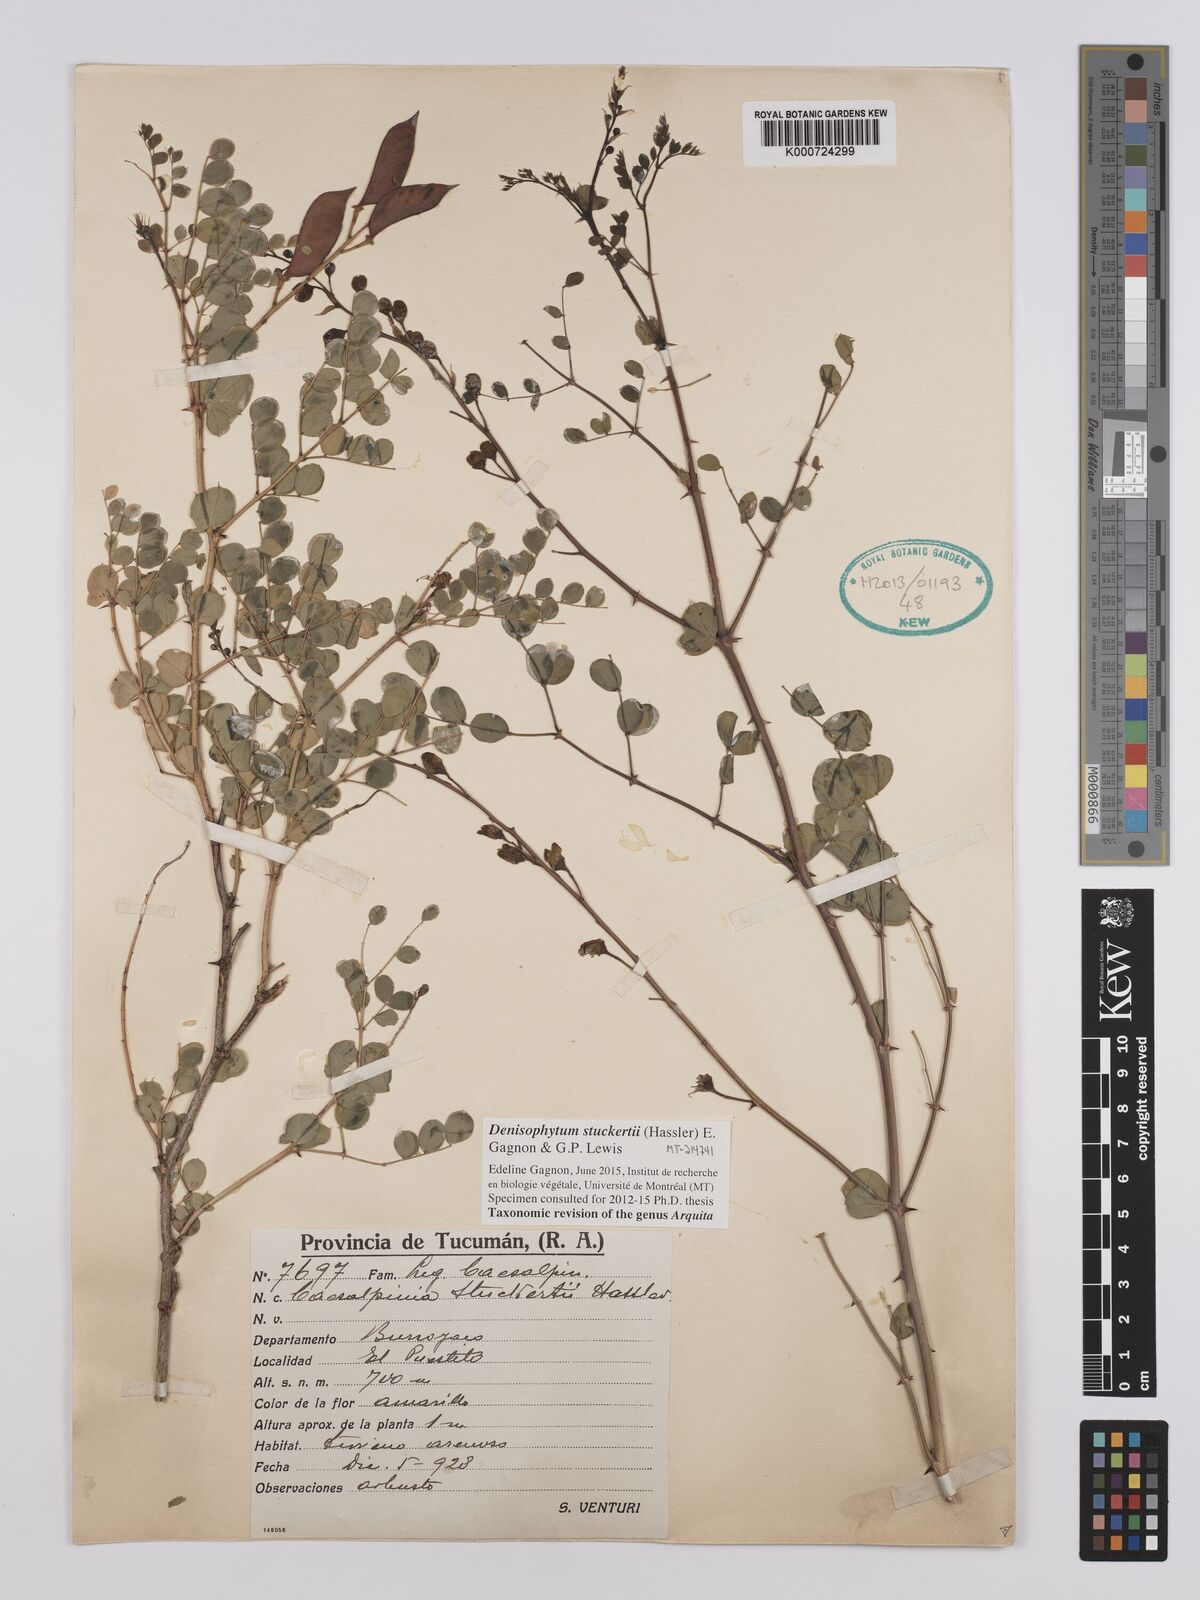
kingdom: Plantae
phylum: Tracheophyta
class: Magnoliopsida
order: Fabales
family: Fabaceae
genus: Denisophytum
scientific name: Denisophytum stuckertii
